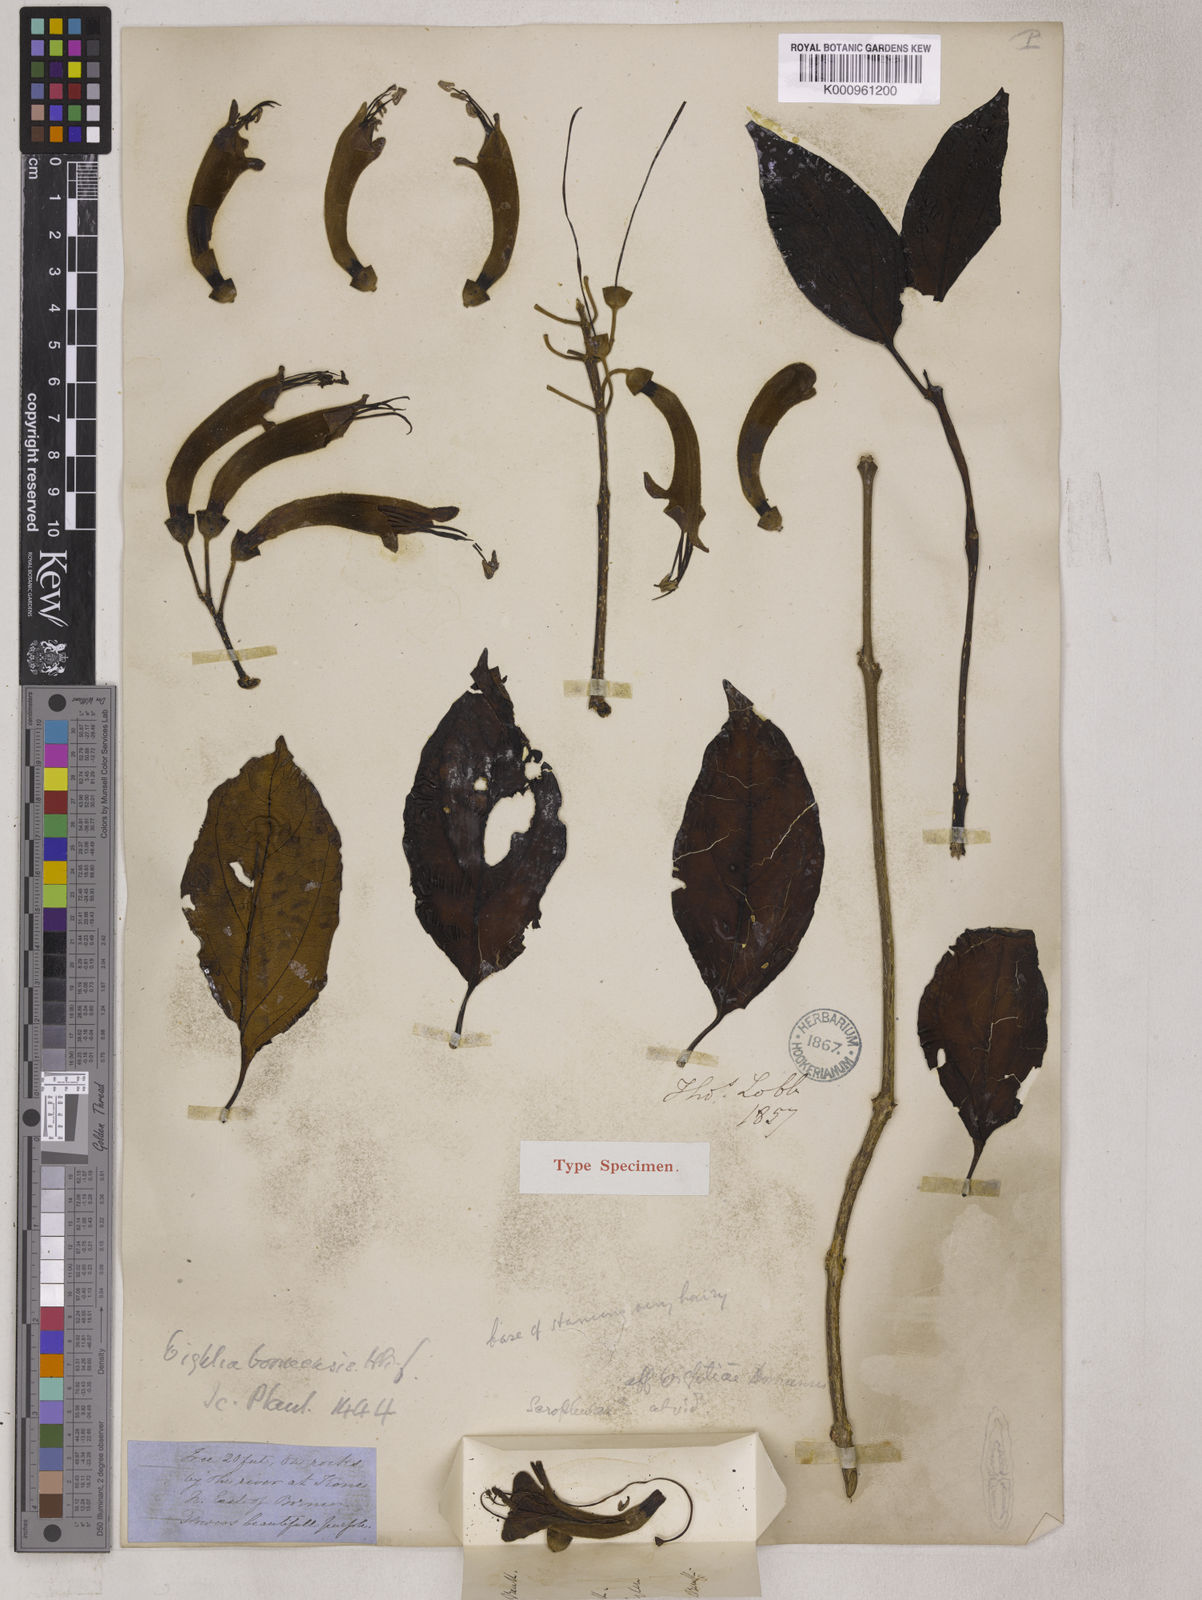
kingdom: Plantae
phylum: Tracheophyta
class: Magnoliopsida
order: Lamiales
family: Wightiaceae
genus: Wightia
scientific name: Wightia borneensis
